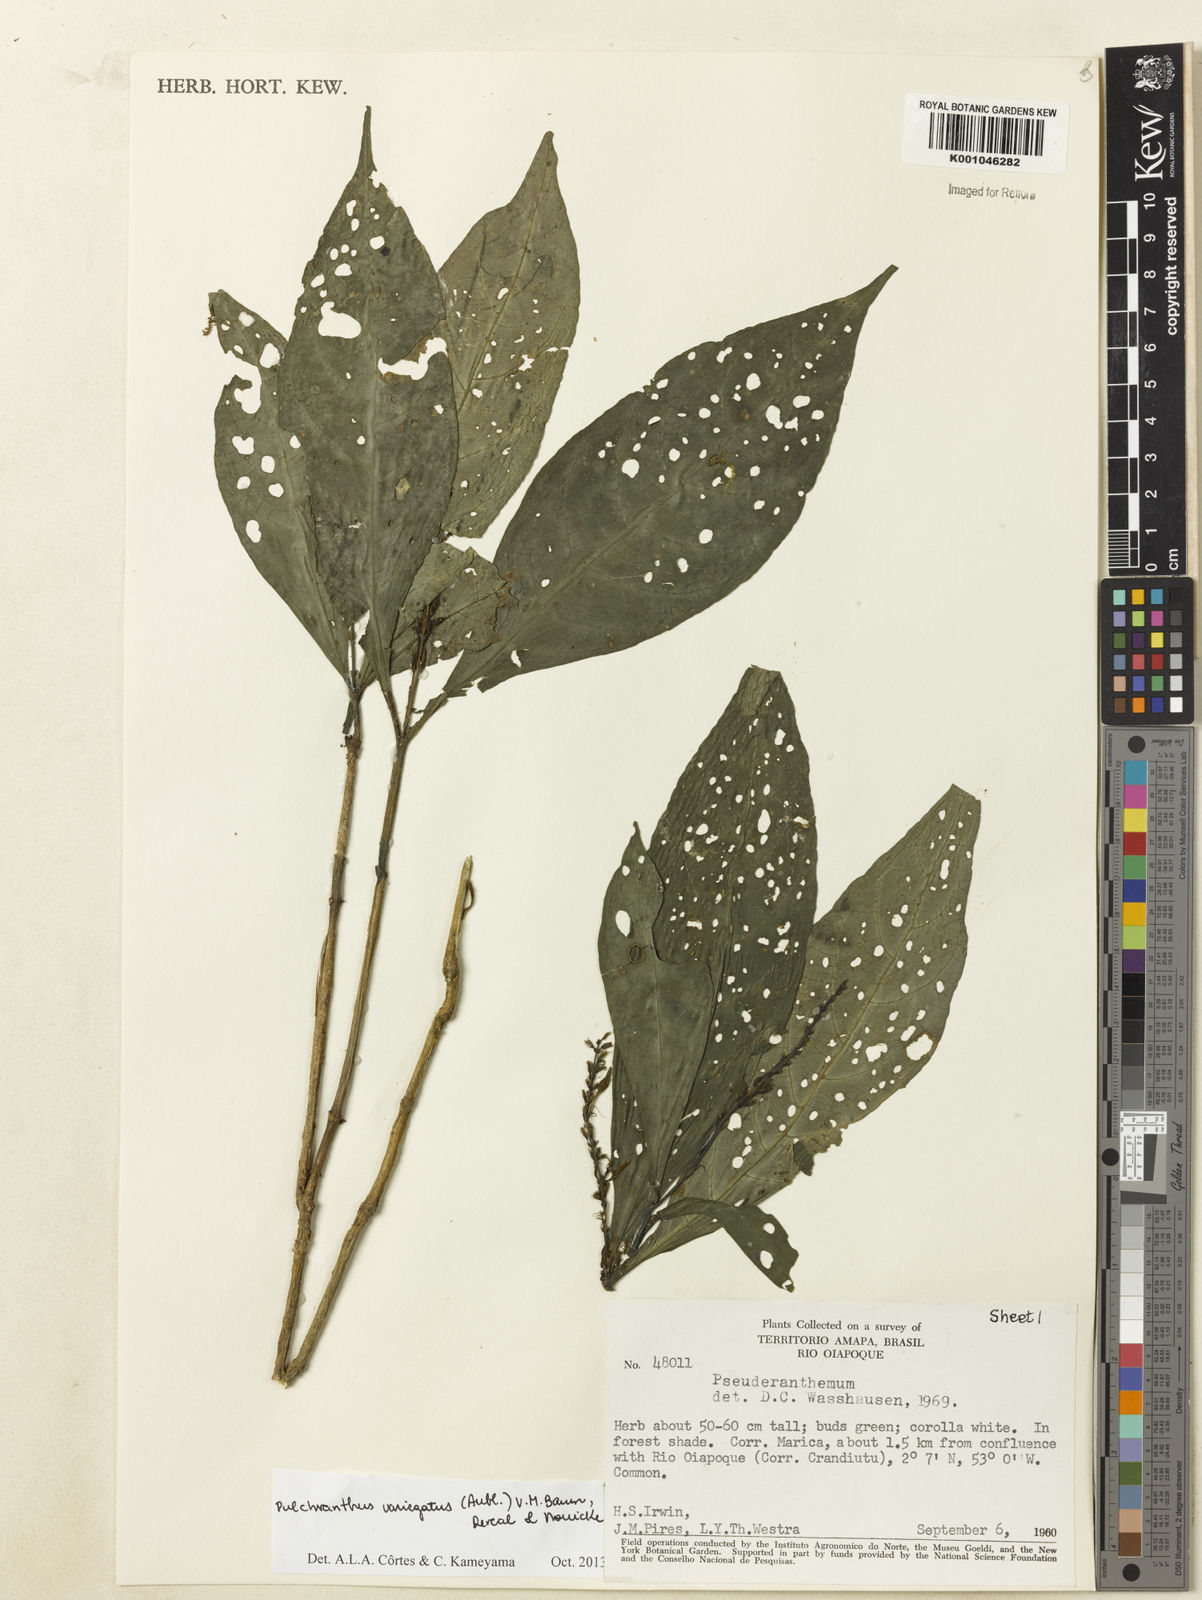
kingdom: Plantae
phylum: Tracheophyta
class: Magnoliopsida
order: Lamiales
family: Acanthaceae
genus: Pulchranthus
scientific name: Pulchranthus
